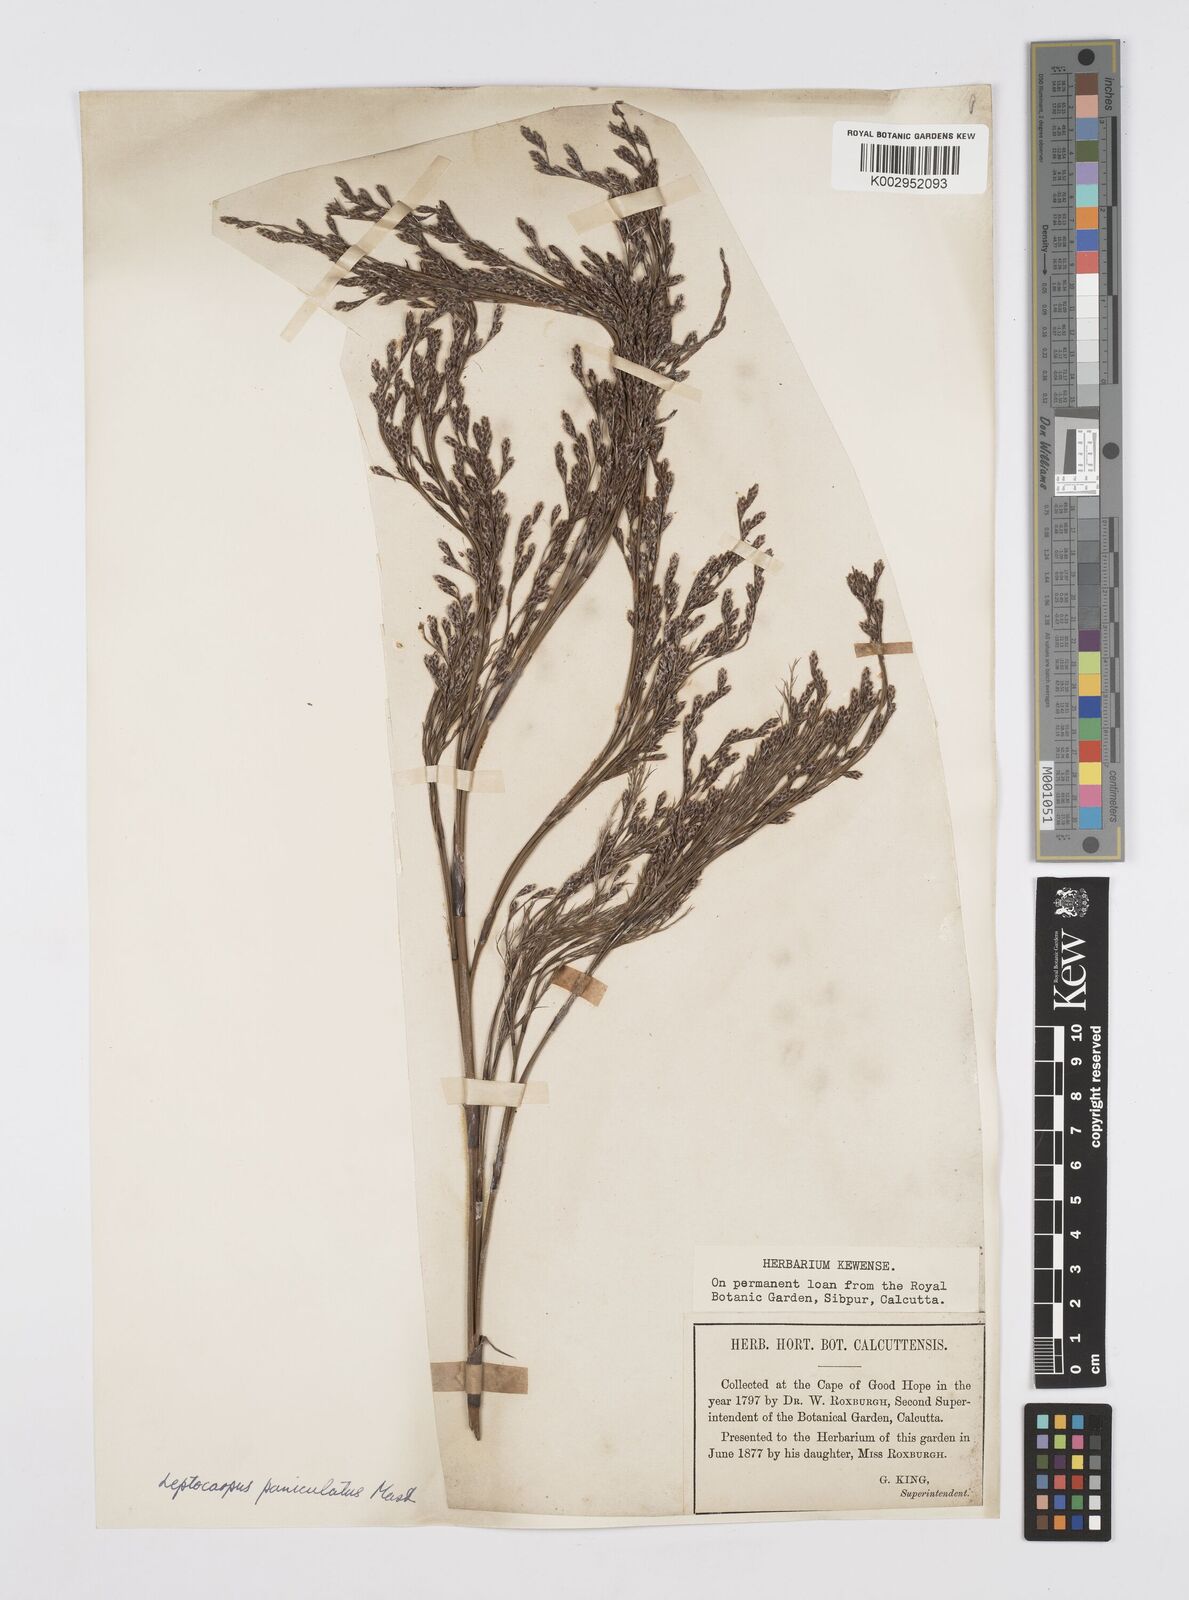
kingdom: Plantae
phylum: Tracheophyta
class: Liliopsida
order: Poales
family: Restionaceae
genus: Restio
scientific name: Restio paniculatus
